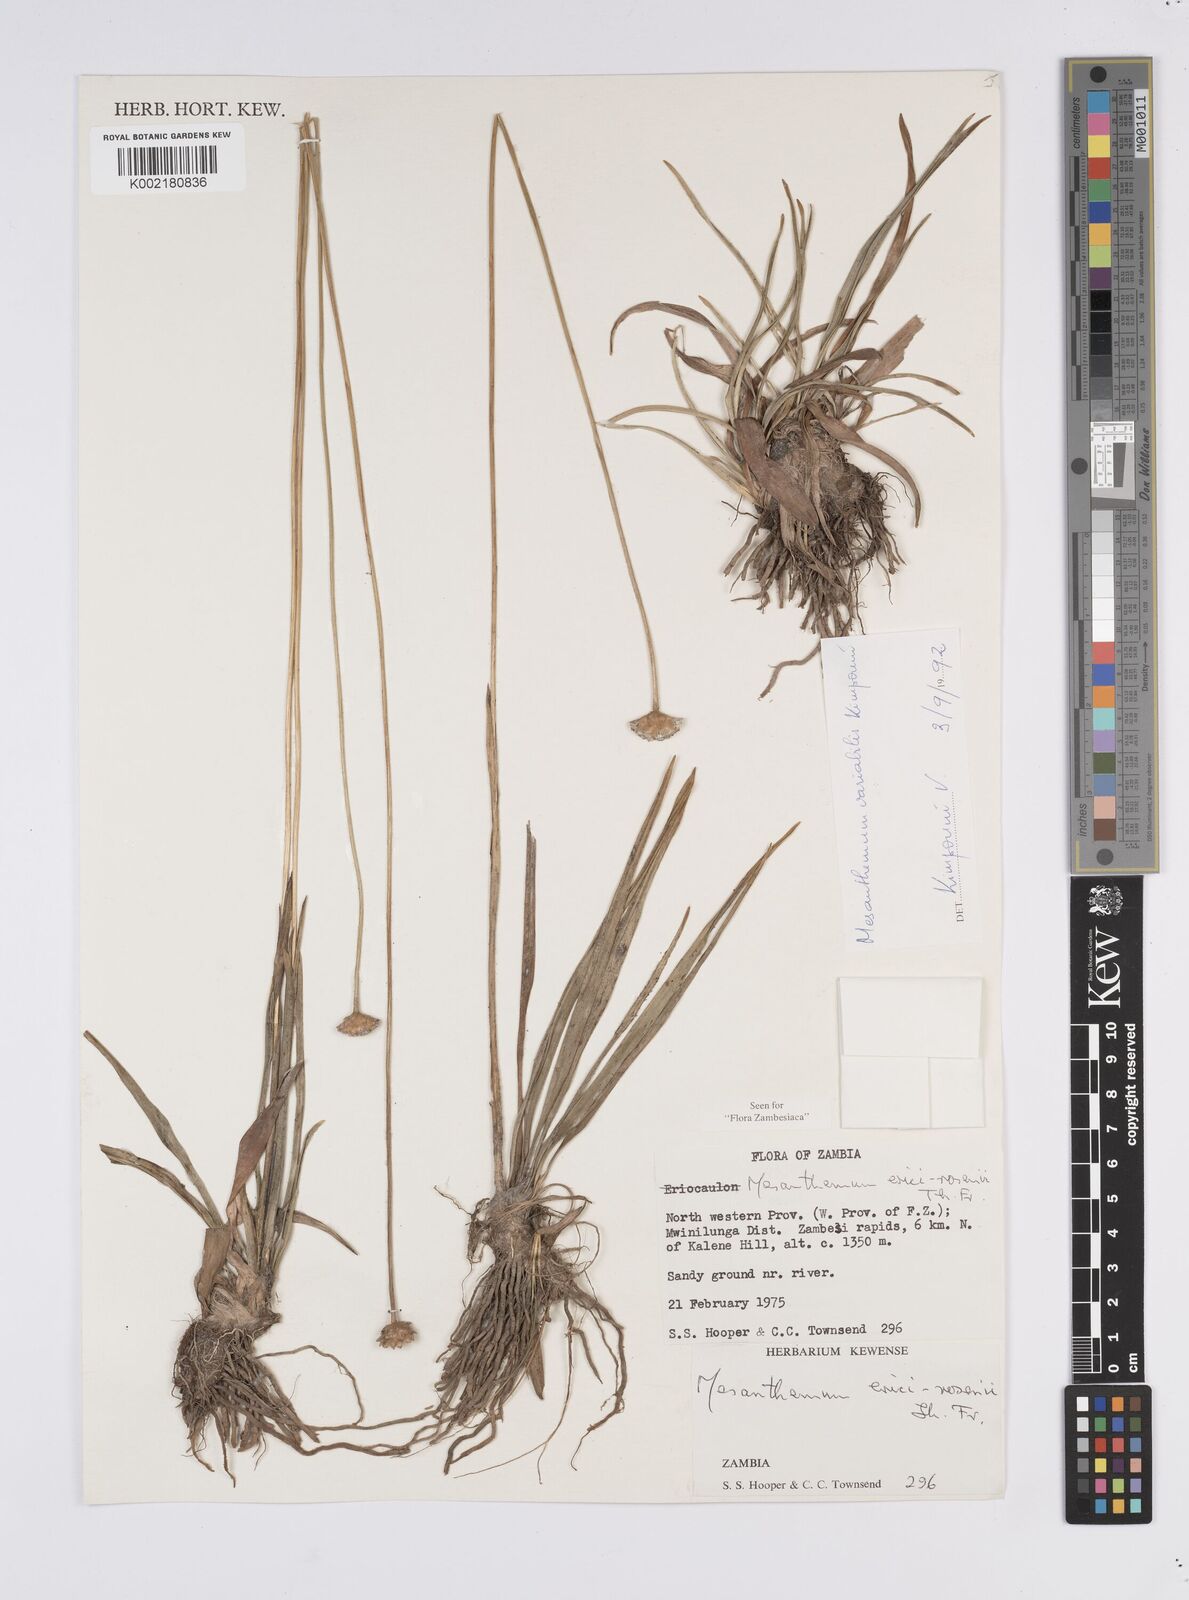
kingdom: Plantae
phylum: Tracheophyta
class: Liliopsida
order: Poales
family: Eriocaulaceae
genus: Mesanthemum
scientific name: Mesanthemum variabile
